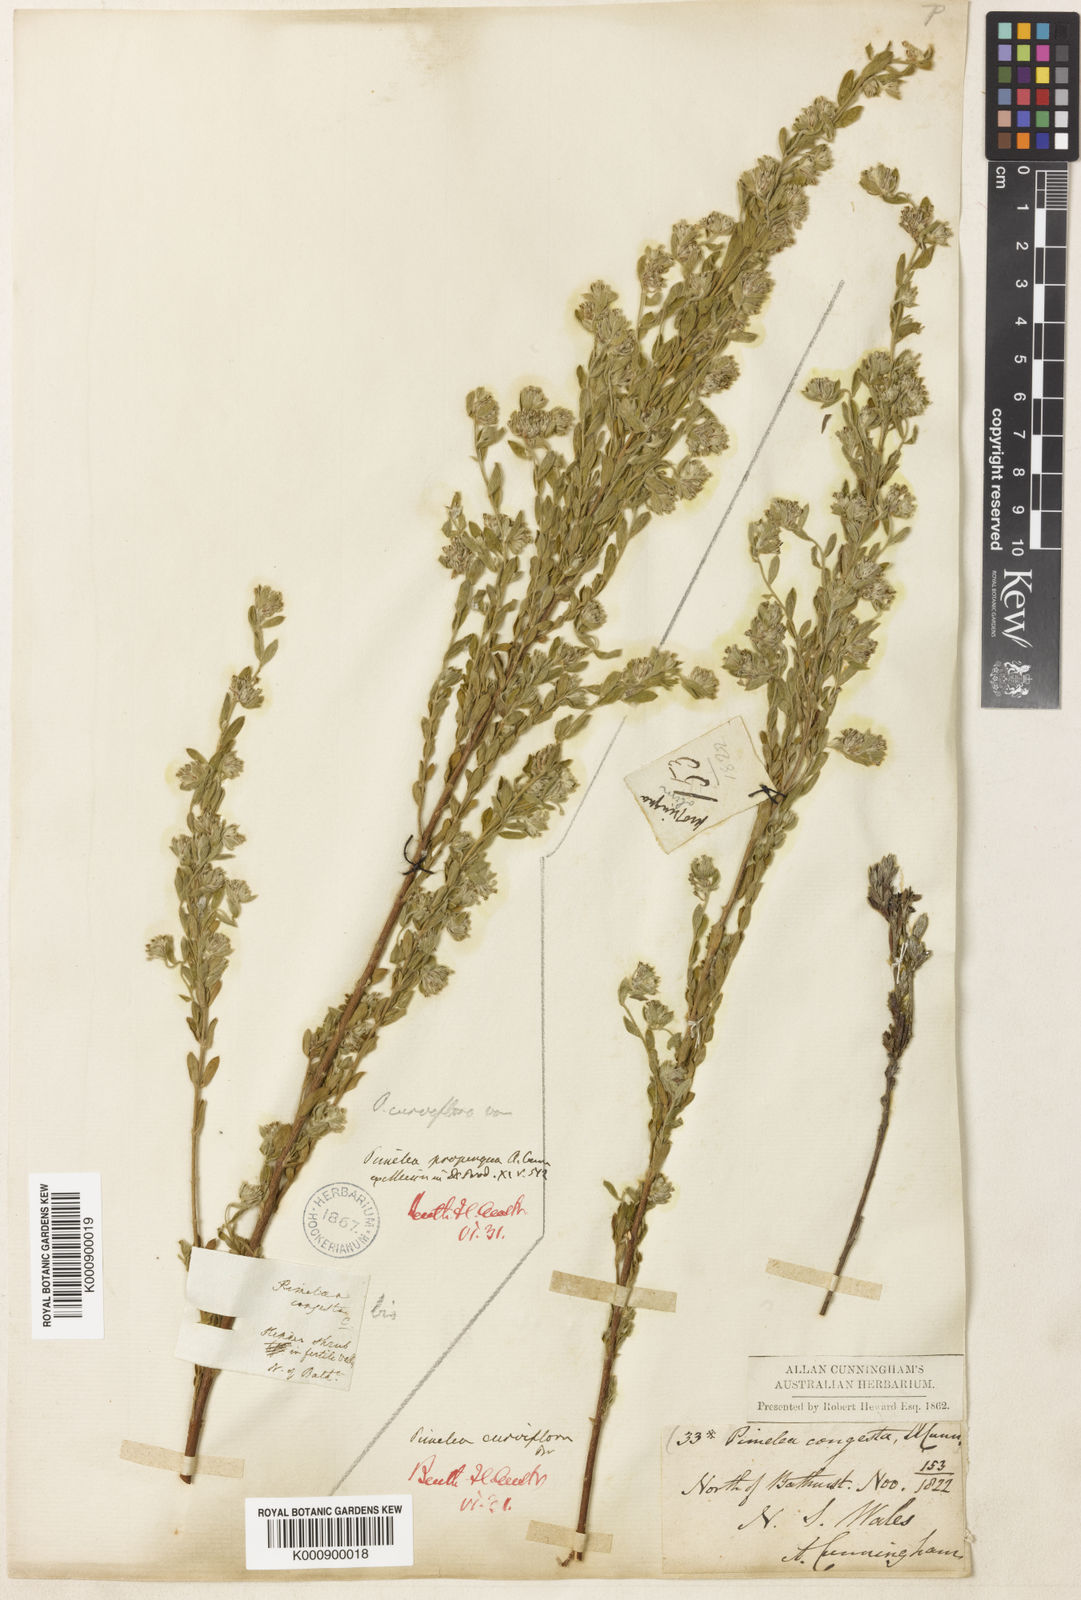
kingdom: Plantae
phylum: Tracheophyta
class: Magnoliopsida
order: Malvales
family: Thymelaeaceae
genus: Pimelea
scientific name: Pimelea curviflora
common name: Curved riceflower
